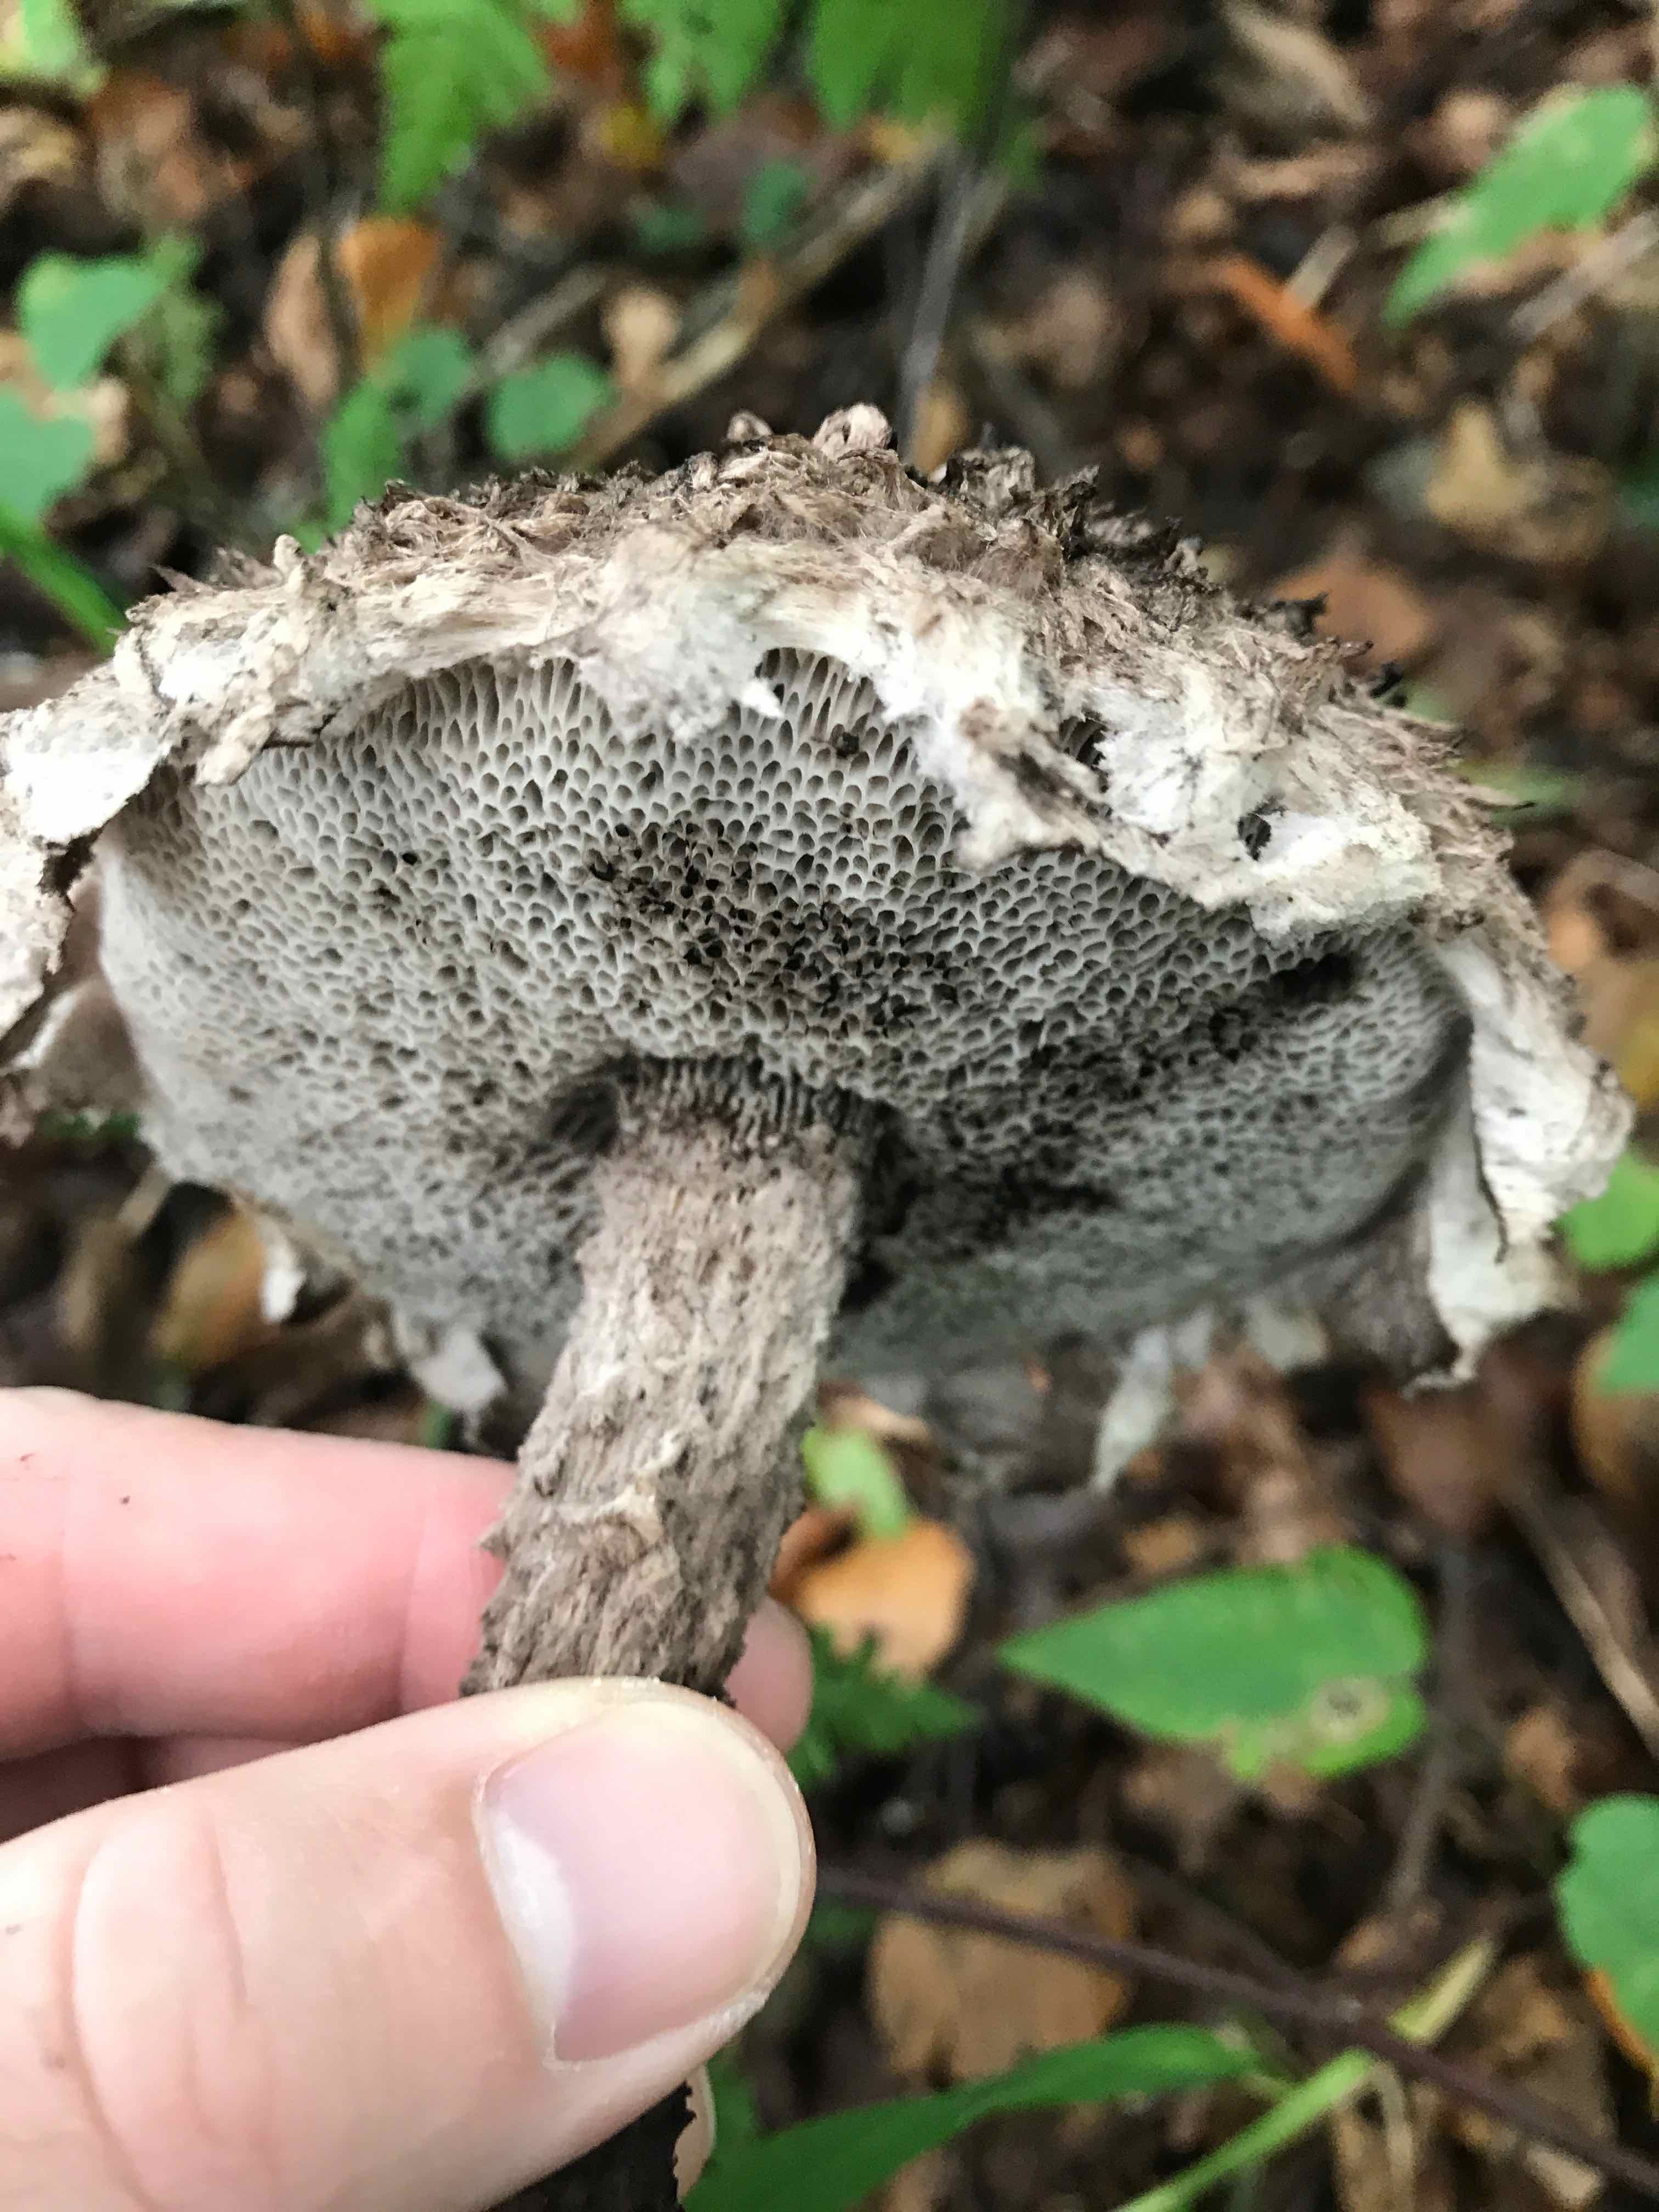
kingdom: Fungi
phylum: Basidiomycota
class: Agaricomycetes
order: Boletales
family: Boletaceae
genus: Strobilomyces
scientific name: Strobilomyces strobilaceus
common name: koglerørhat
